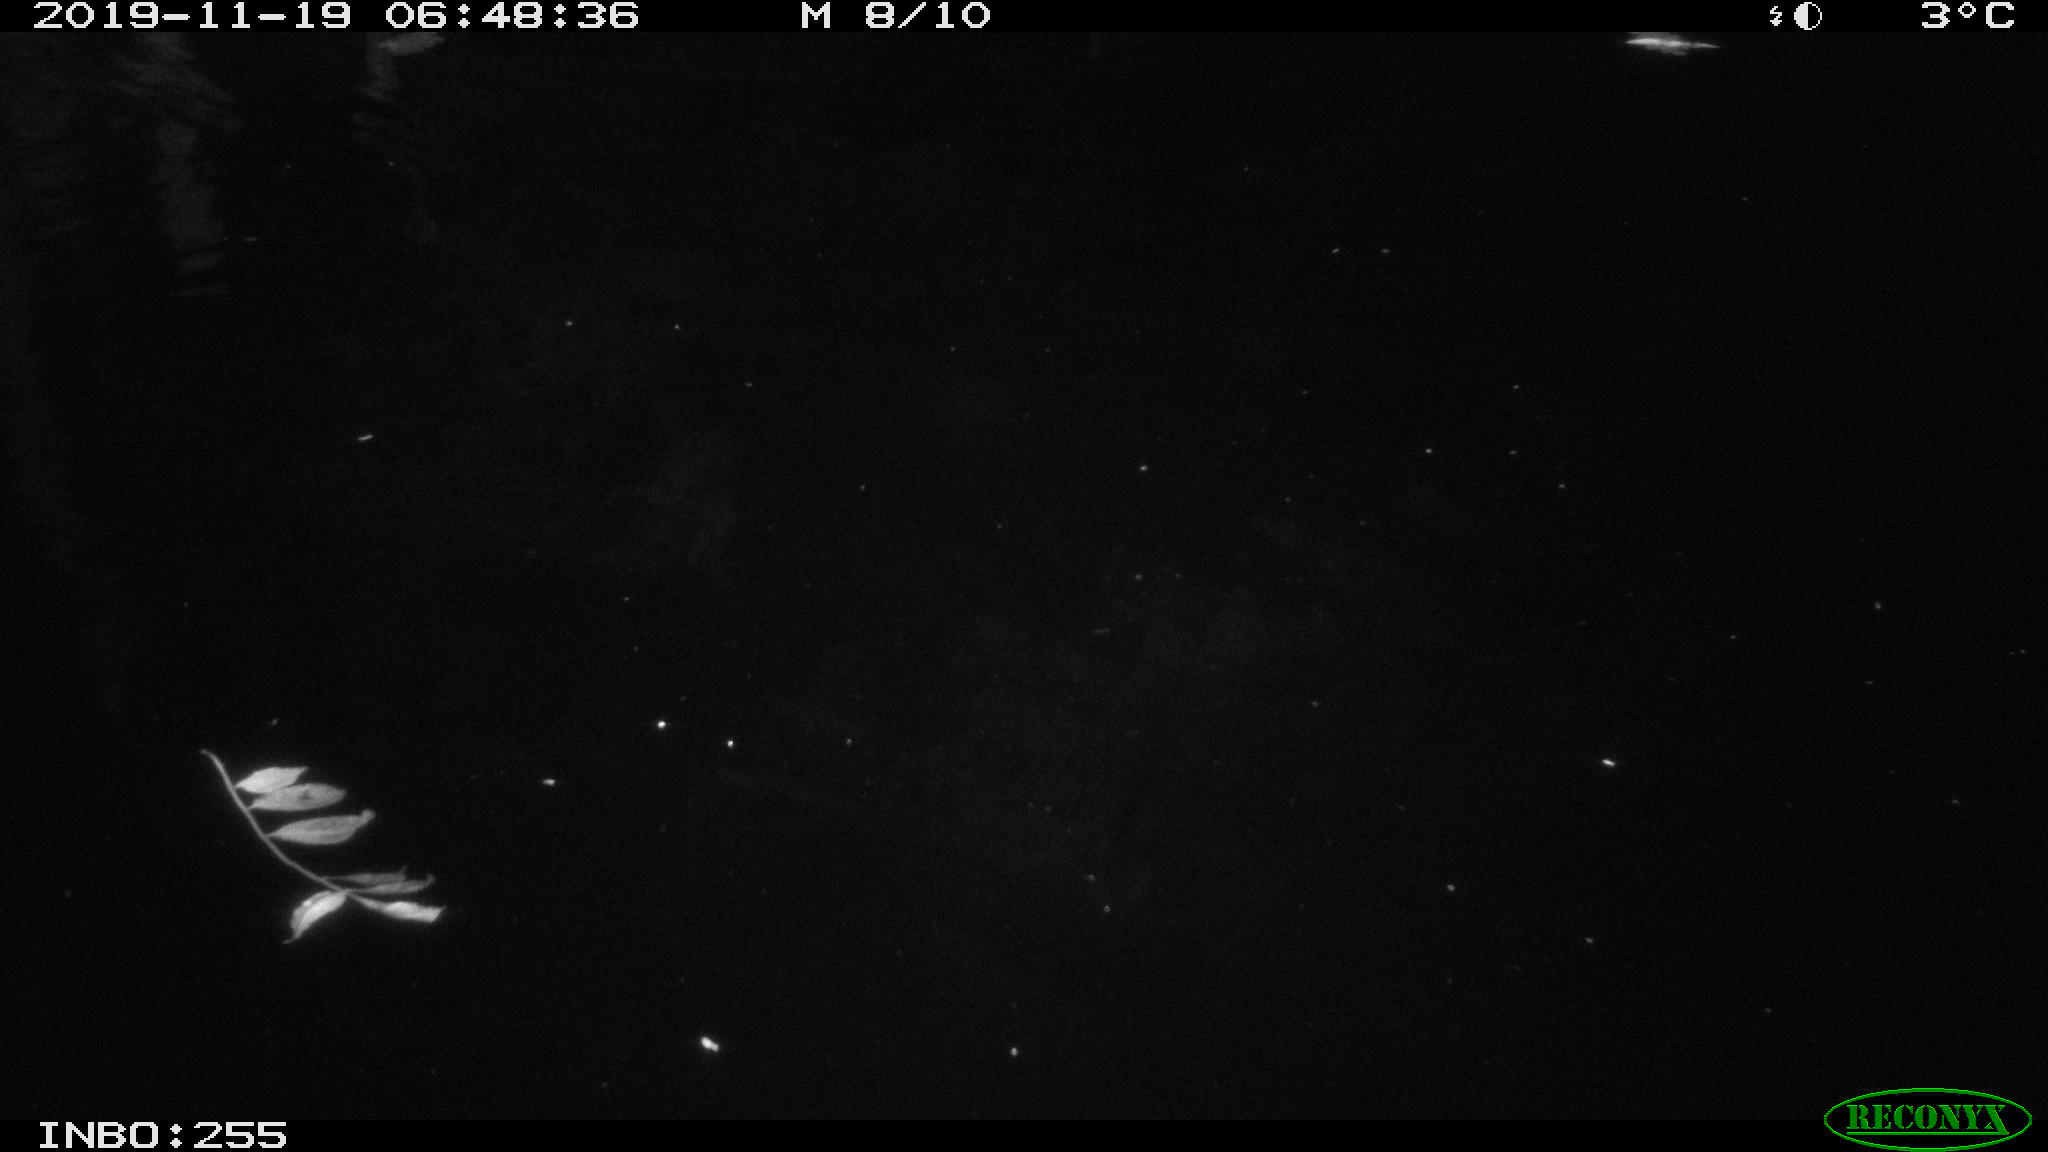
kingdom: Animalia
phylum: Chordata
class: Mammalia
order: Rodentia
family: Muridae
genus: Rattus
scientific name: Rattus norvegicus
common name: Brown rat
